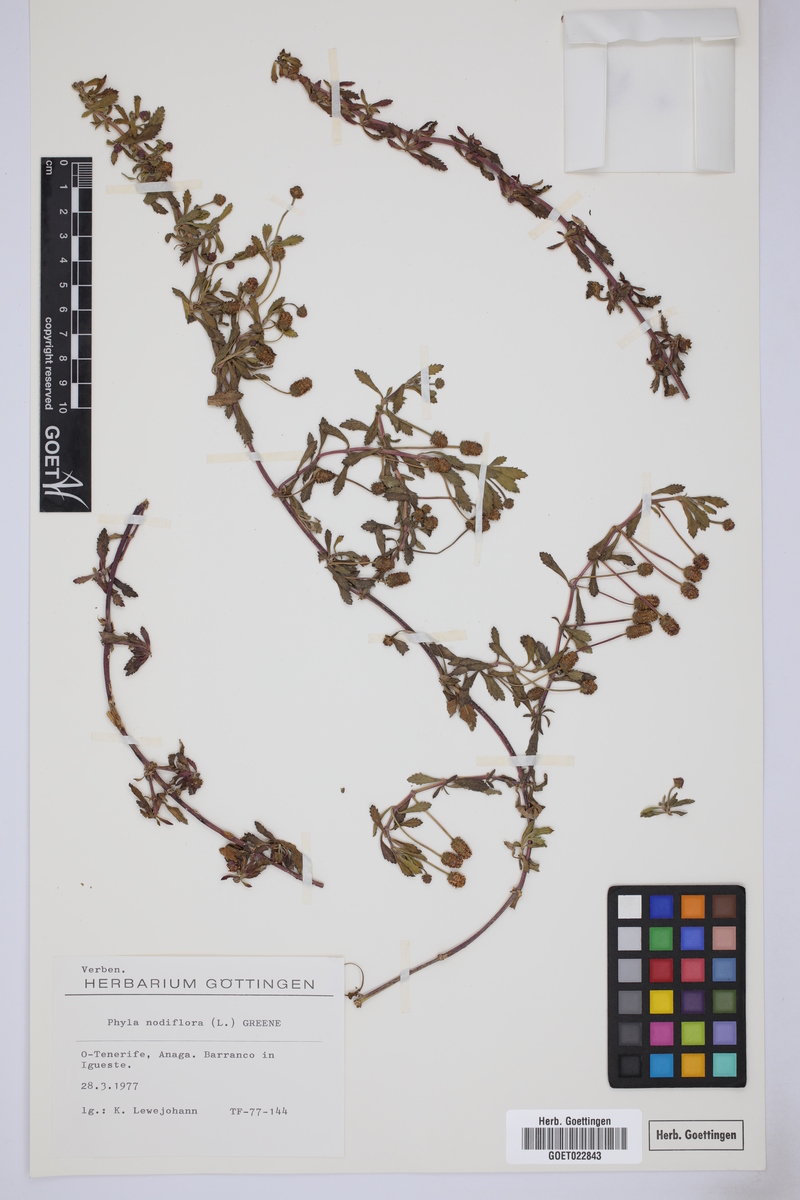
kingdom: Plantae
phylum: Tracheophyta
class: Magnoliopsida
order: Lamiales
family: Verbenaceae
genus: Phyla
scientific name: Phyla nodiflora
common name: Frogfruit
